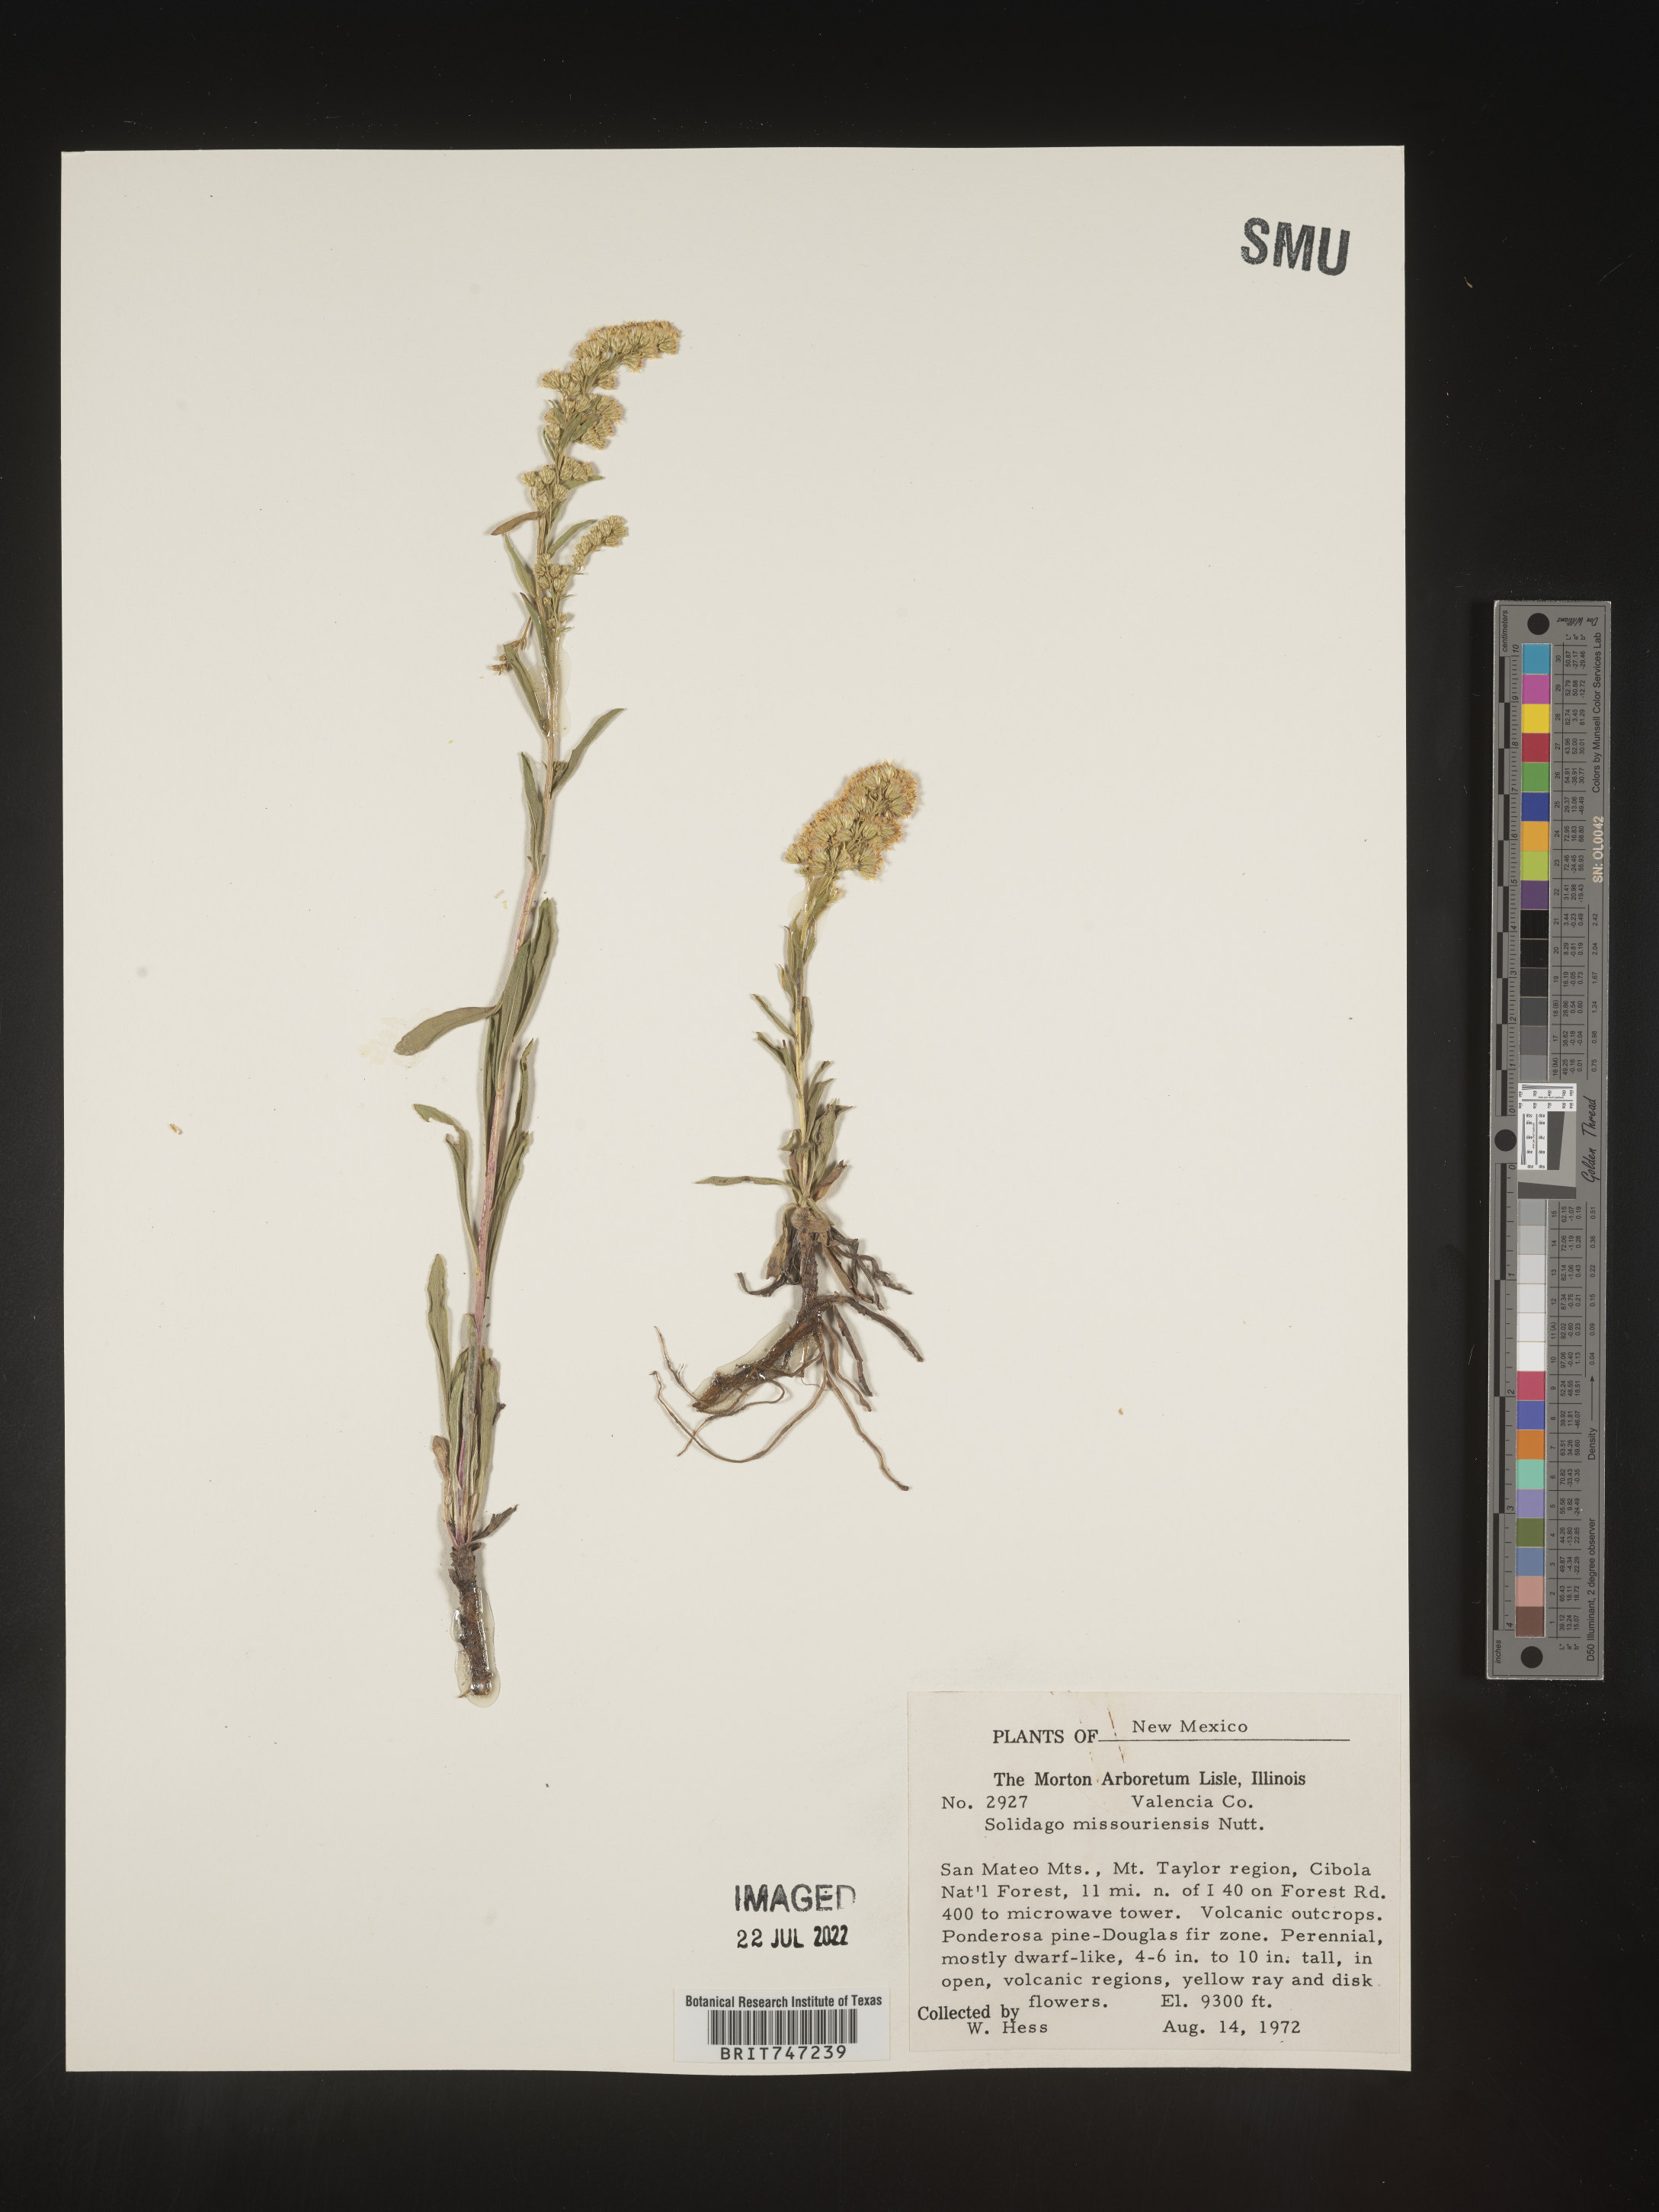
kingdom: Plantae
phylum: Tracheophyta
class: Magnoliopsida
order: Asterales
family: Asteraceae
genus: Solidago
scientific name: Solidago missouriensis
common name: Prairie goldenrod
